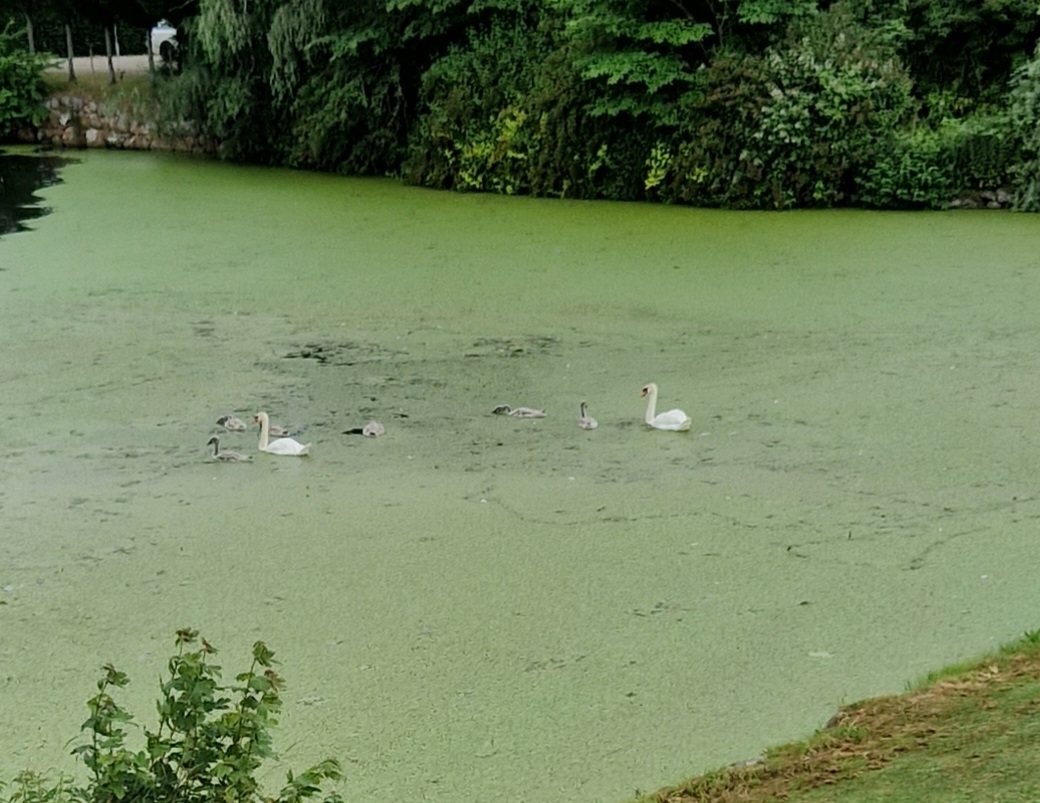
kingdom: Animalia
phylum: Chordata
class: Aves
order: Anseriformes
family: Anatidae
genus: Cygnus
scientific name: Cygnus olor
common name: Knopsvane
